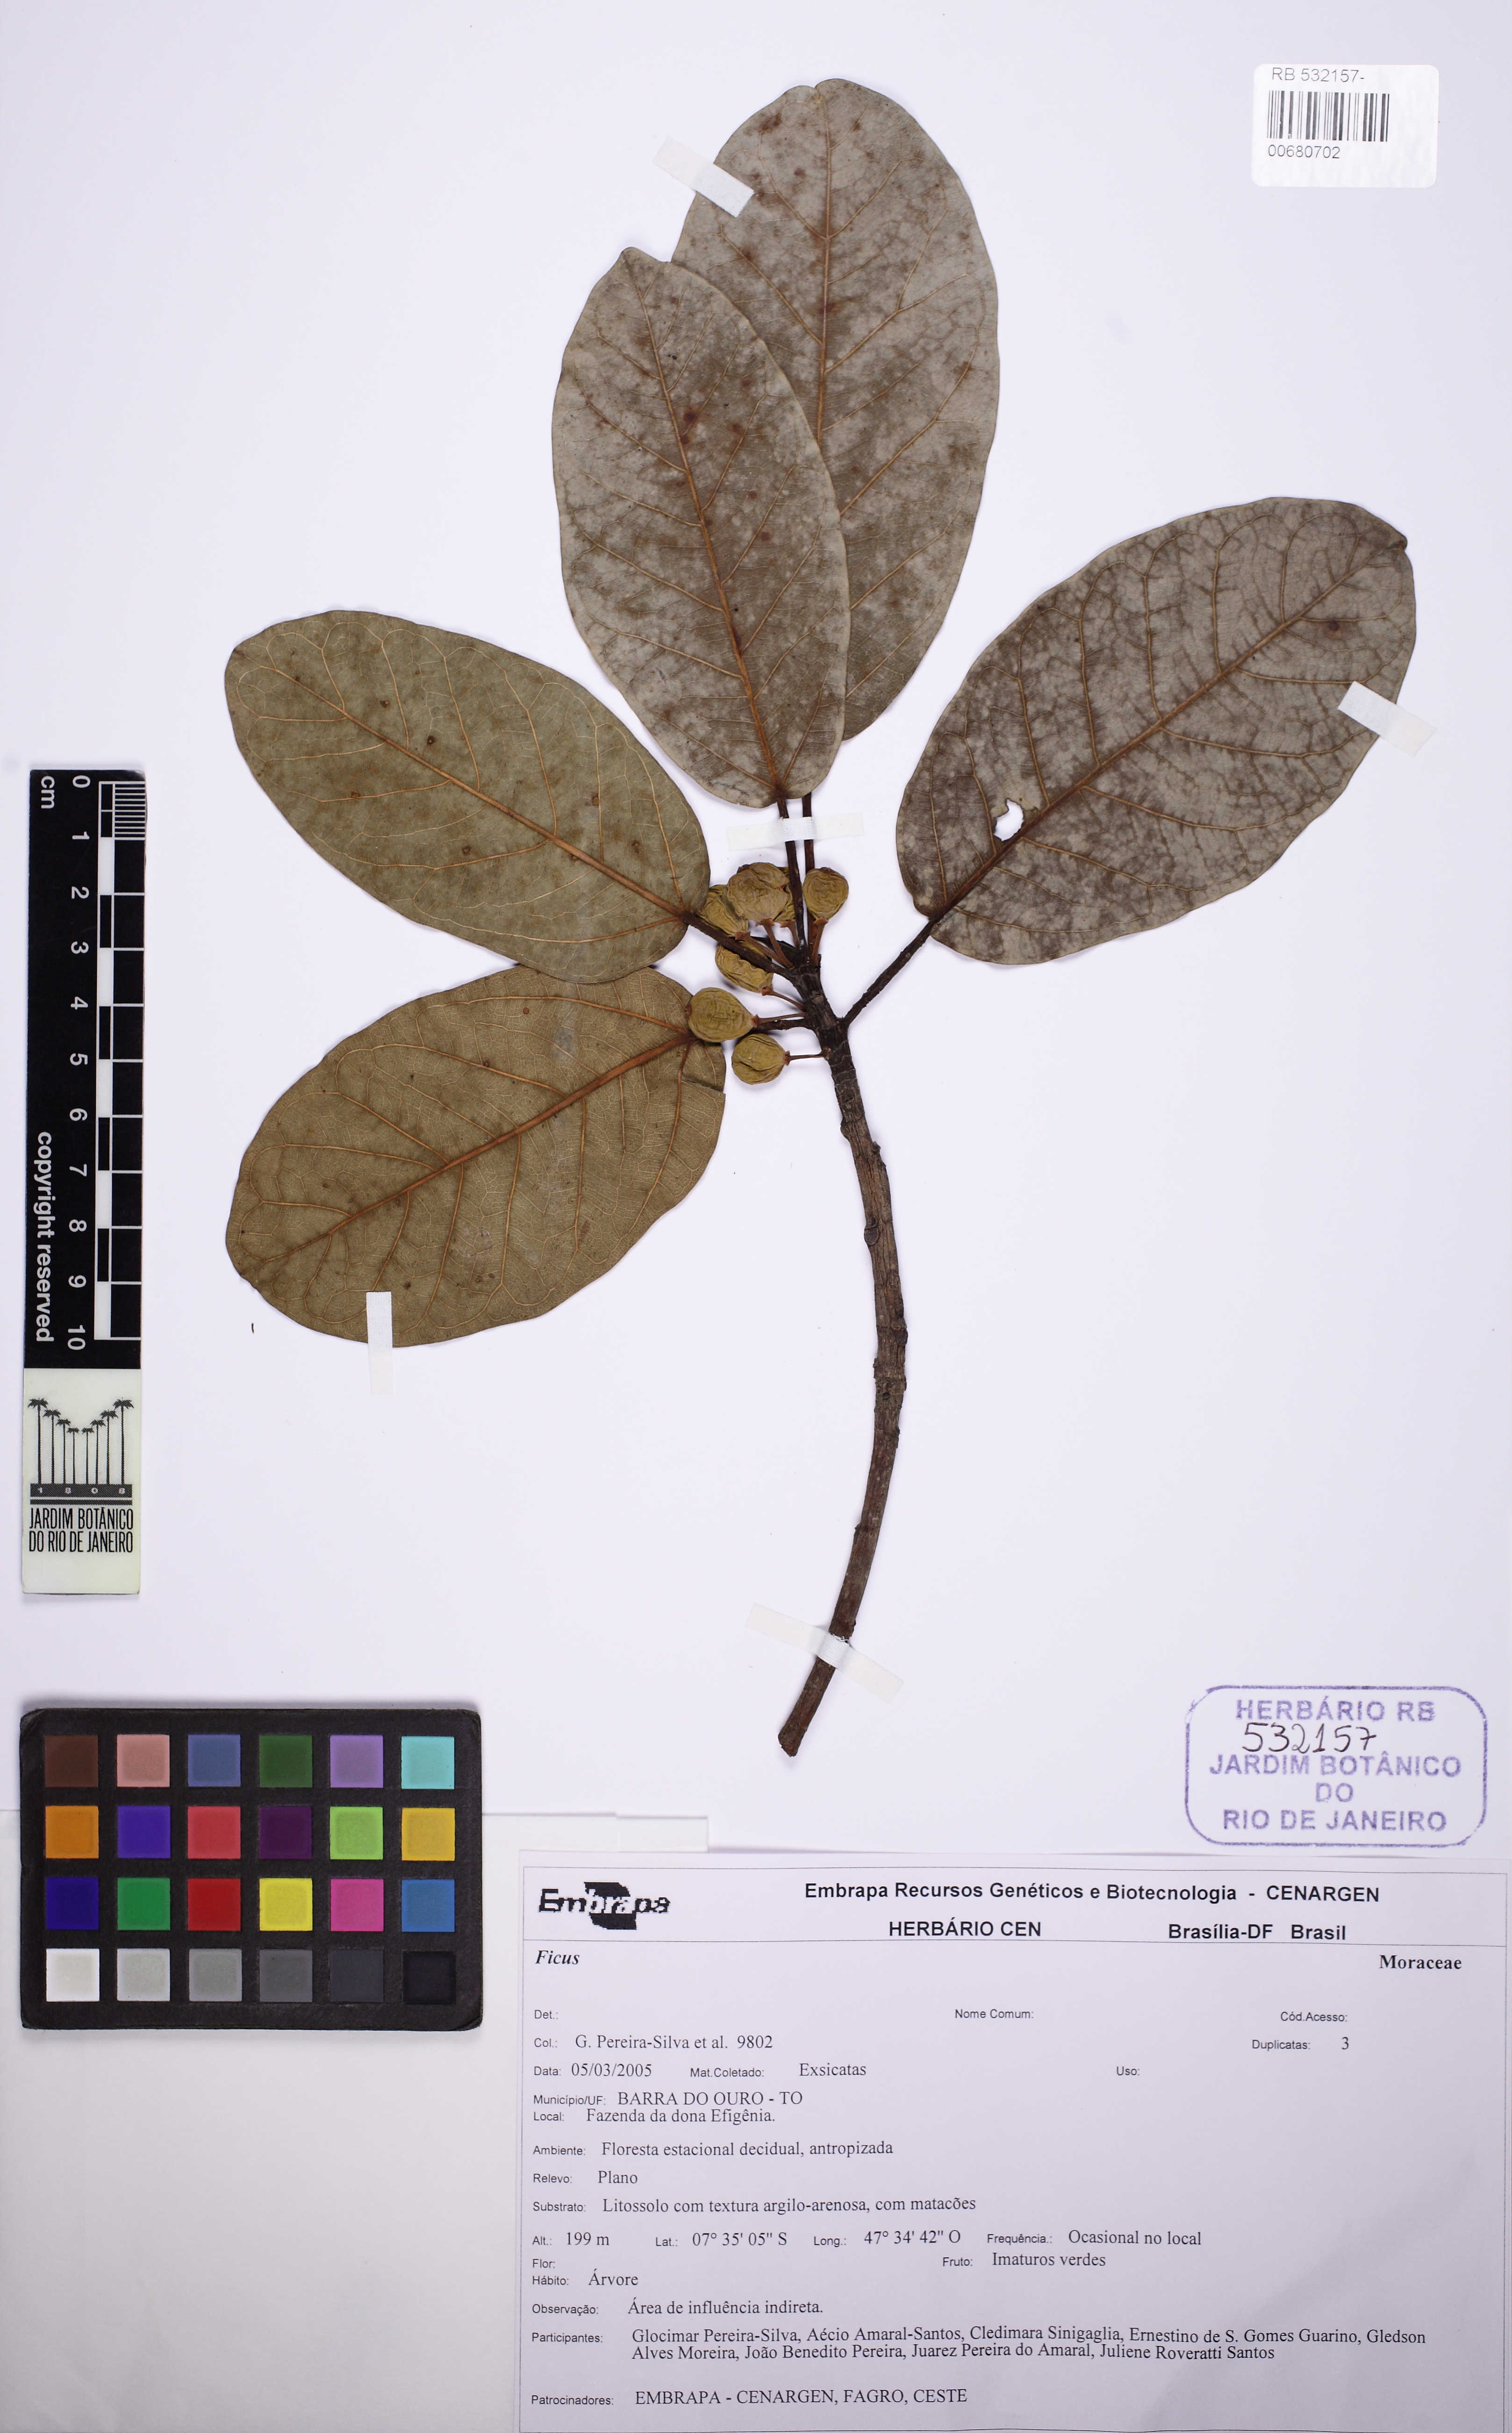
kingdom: Plantae
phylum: Tracheophyta
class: Magnoliopsida
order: Rosales
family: Moraceae
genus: Ficus
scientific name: Ficus caatingae
